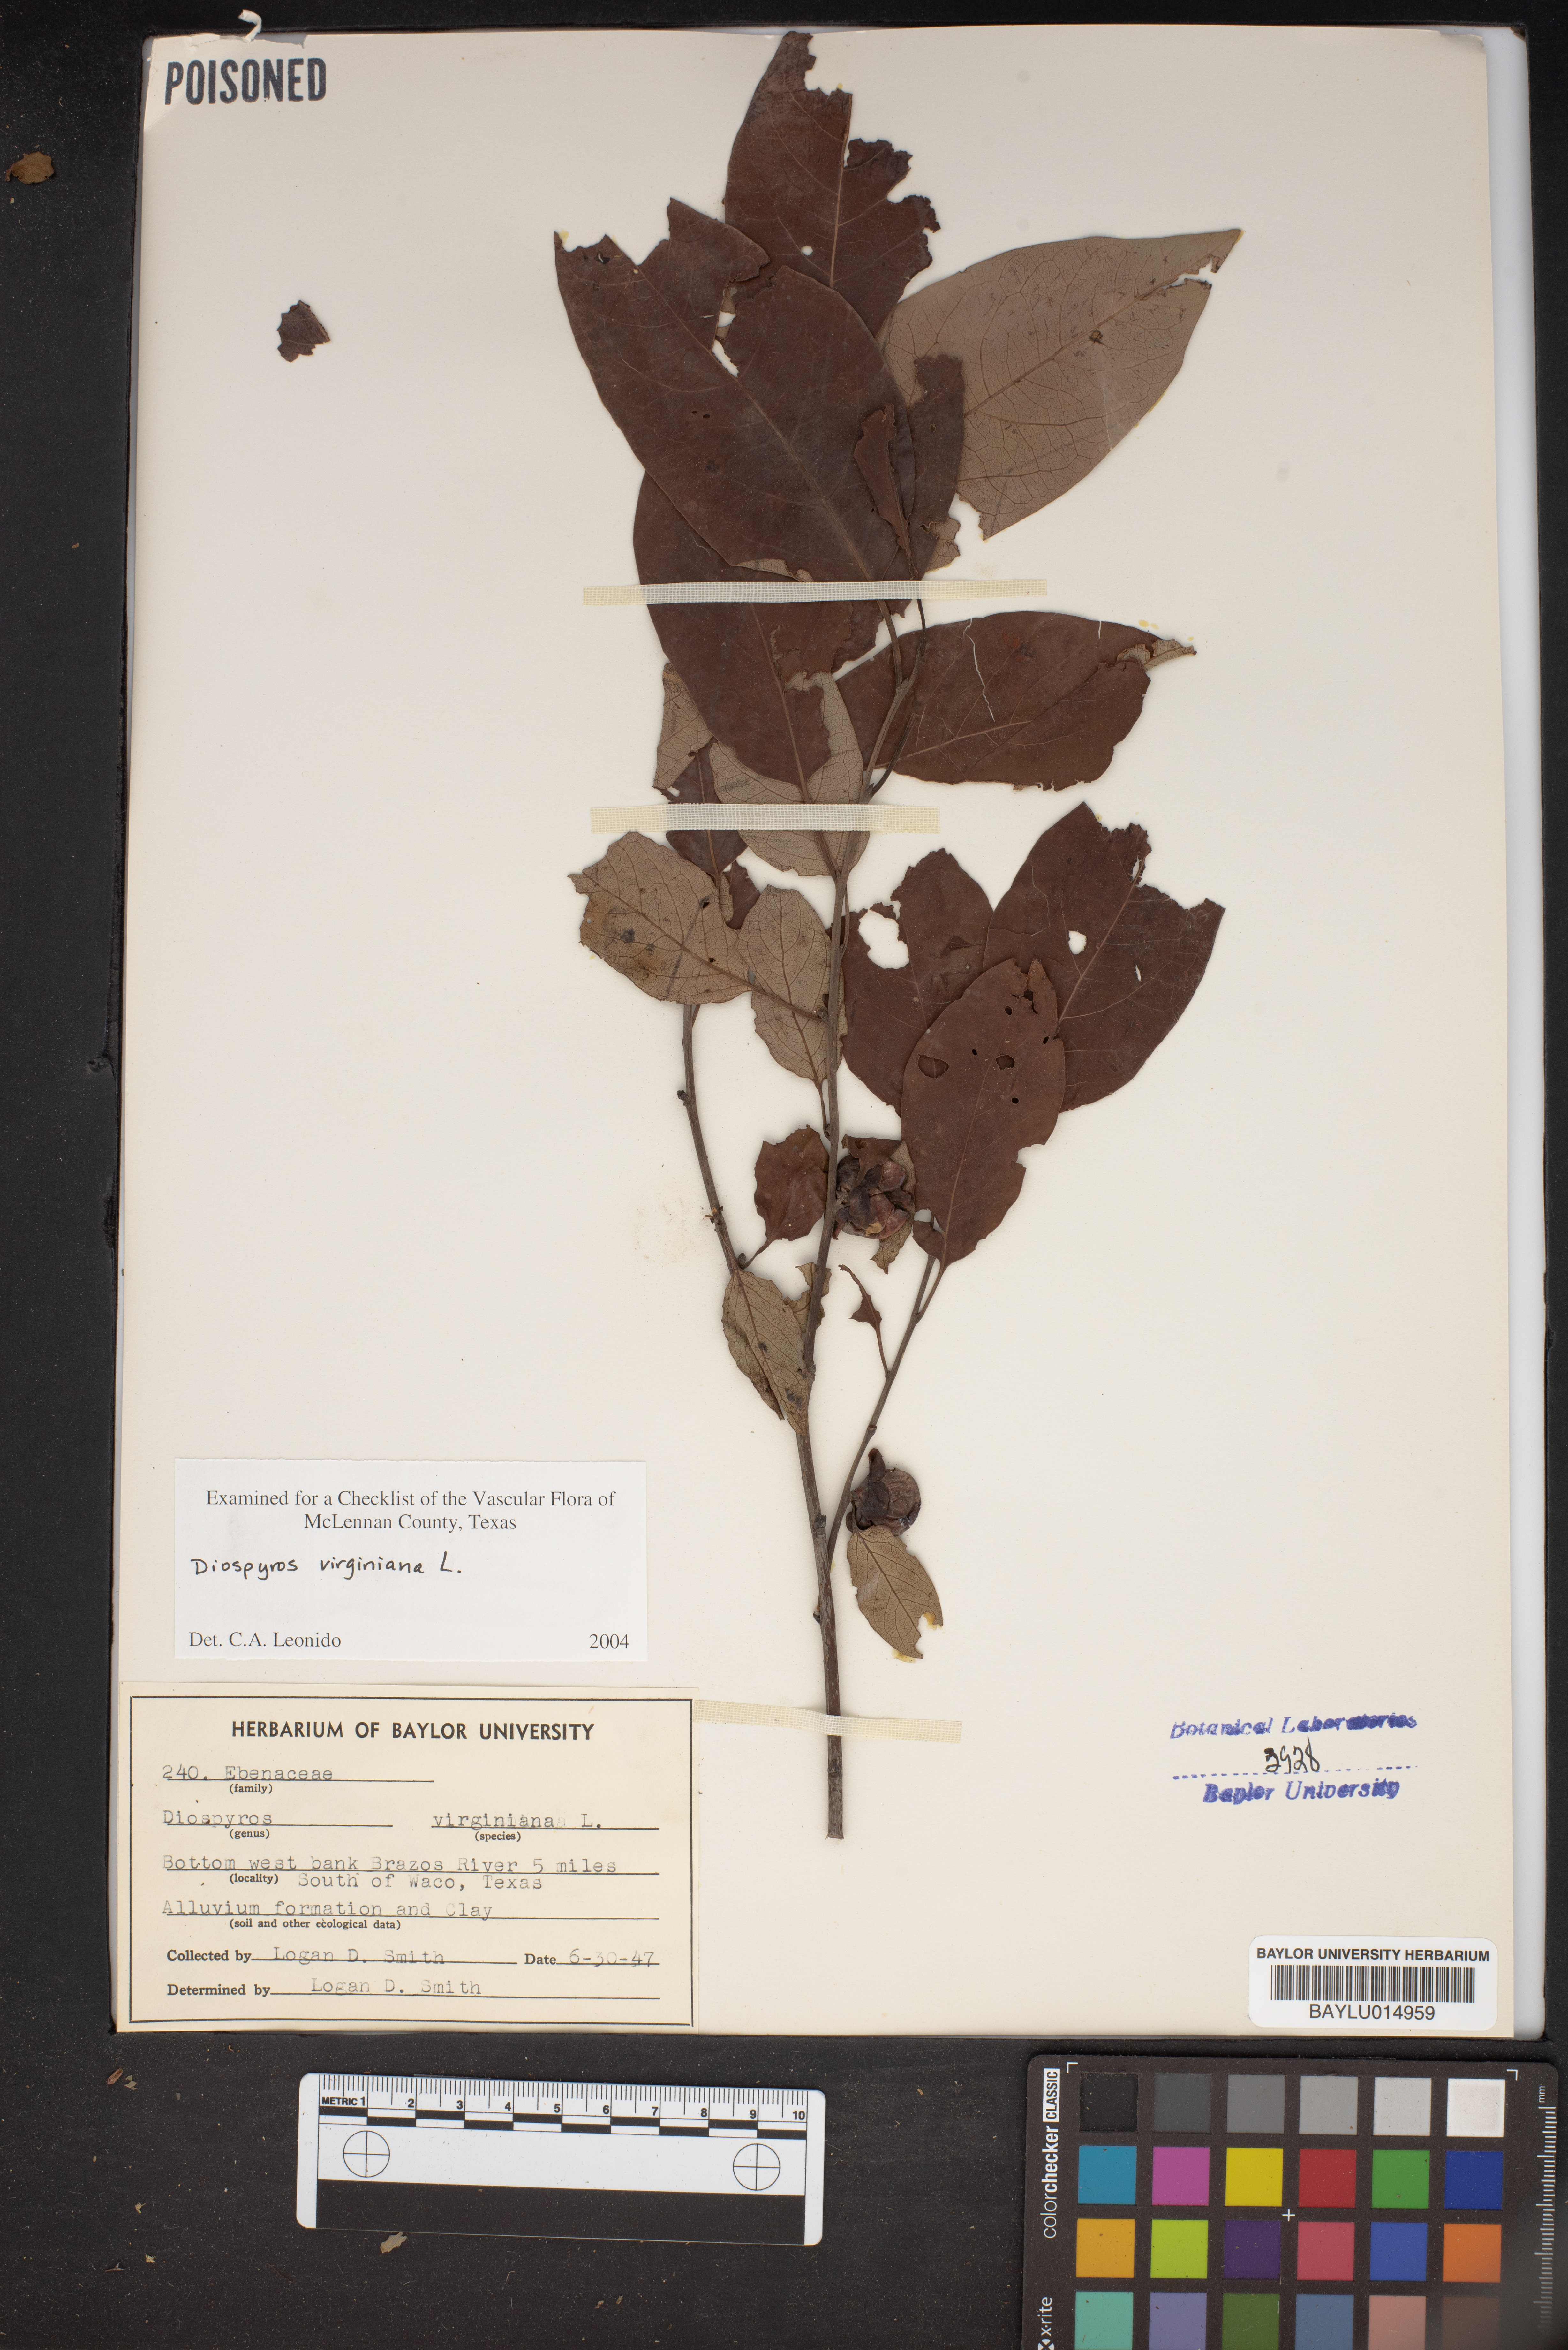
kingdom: Plantae
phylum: Tracheophyta
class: Magnoliopsida
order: Ericales
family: Ebenaceae
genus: Diospyros
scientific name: Diospyros virginiana
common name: Persimmon
